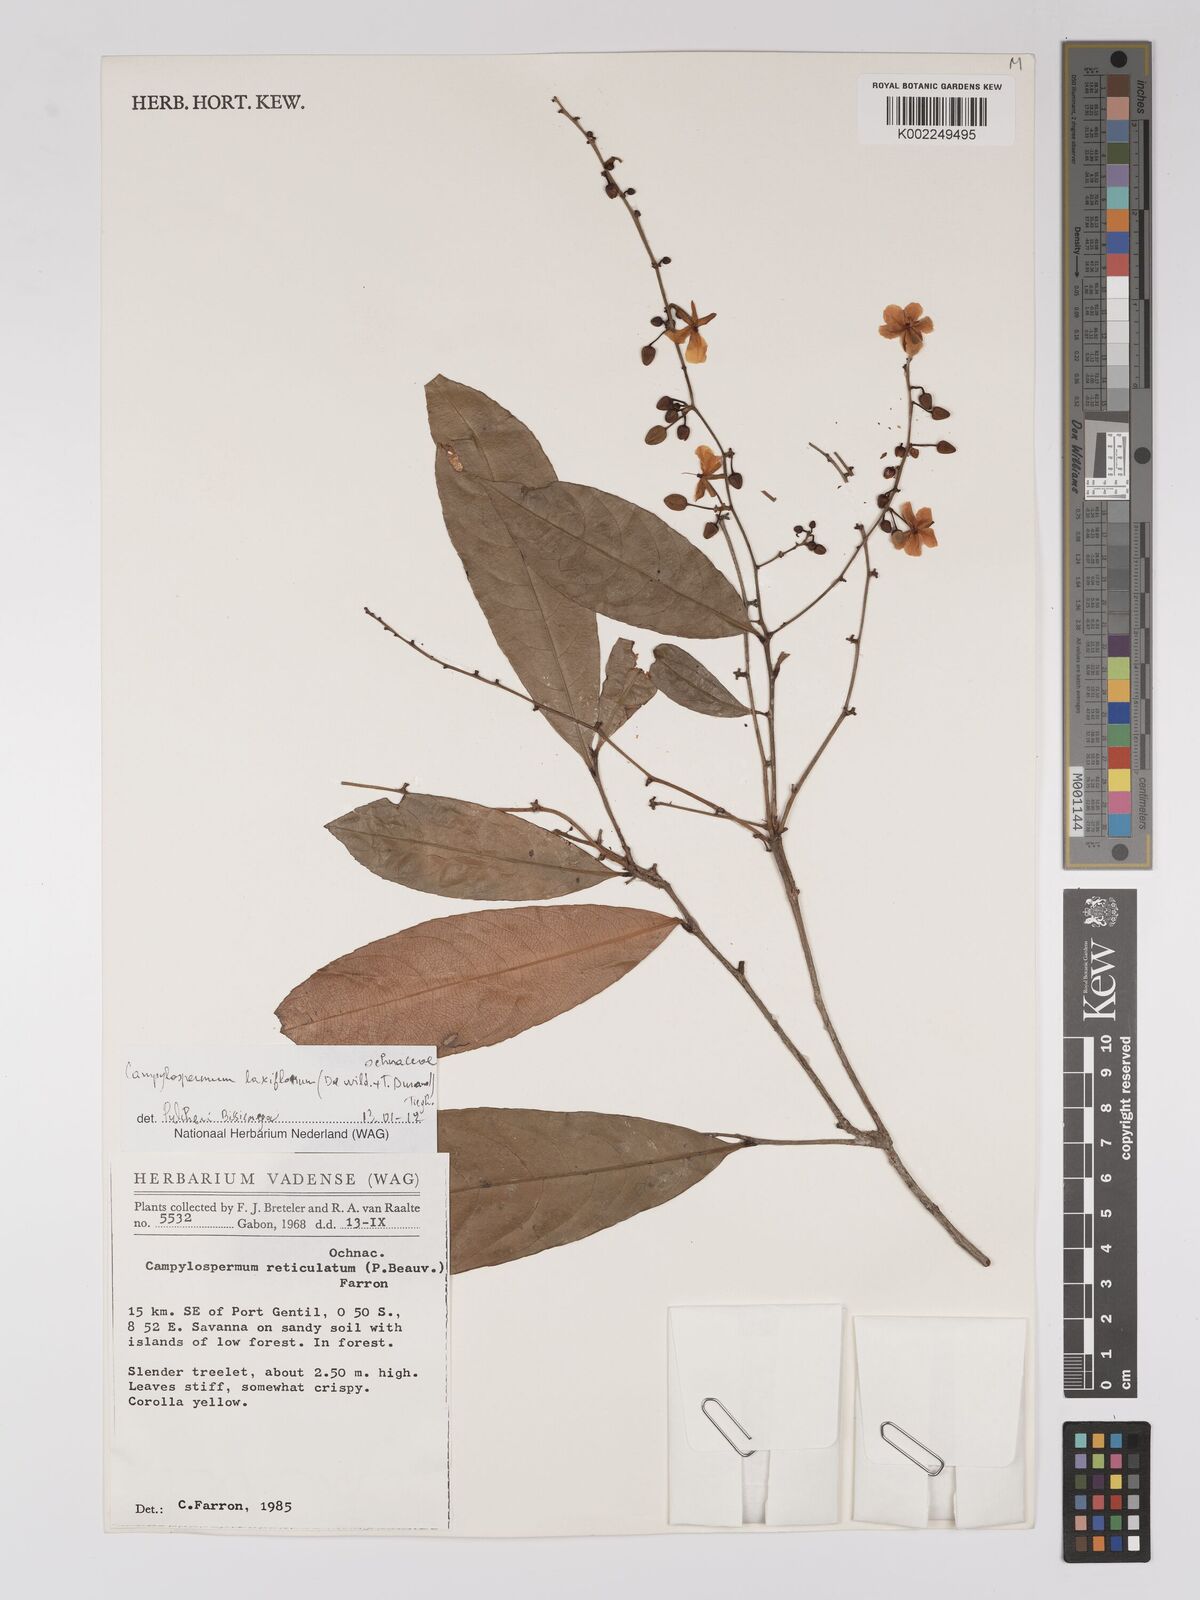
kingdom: Plantae
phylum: Tracheophyta
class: Magnoliopsida
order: Malpighiales
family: Ochnaceae
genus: Campylospermum
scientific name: Campylospermum laxiflorum
